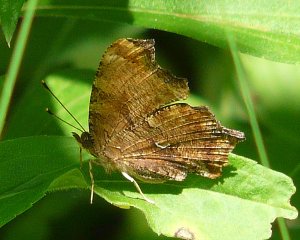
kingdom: Animalia
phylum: Arthropoda
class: Insecta
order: Lepidoptera
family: Nymphalidae
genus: Polygonia
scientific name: Polygonia comma
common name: Eastern Comma
